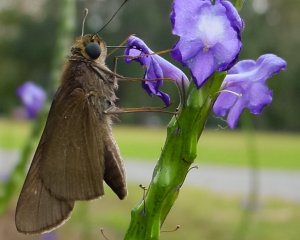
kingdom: Animalia
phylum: Arthropoda
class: Insecta
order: Lepidoptera
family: Hesperiidae
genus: Panoquina
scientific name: Panoquina ocola
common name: Ocola Skipper
